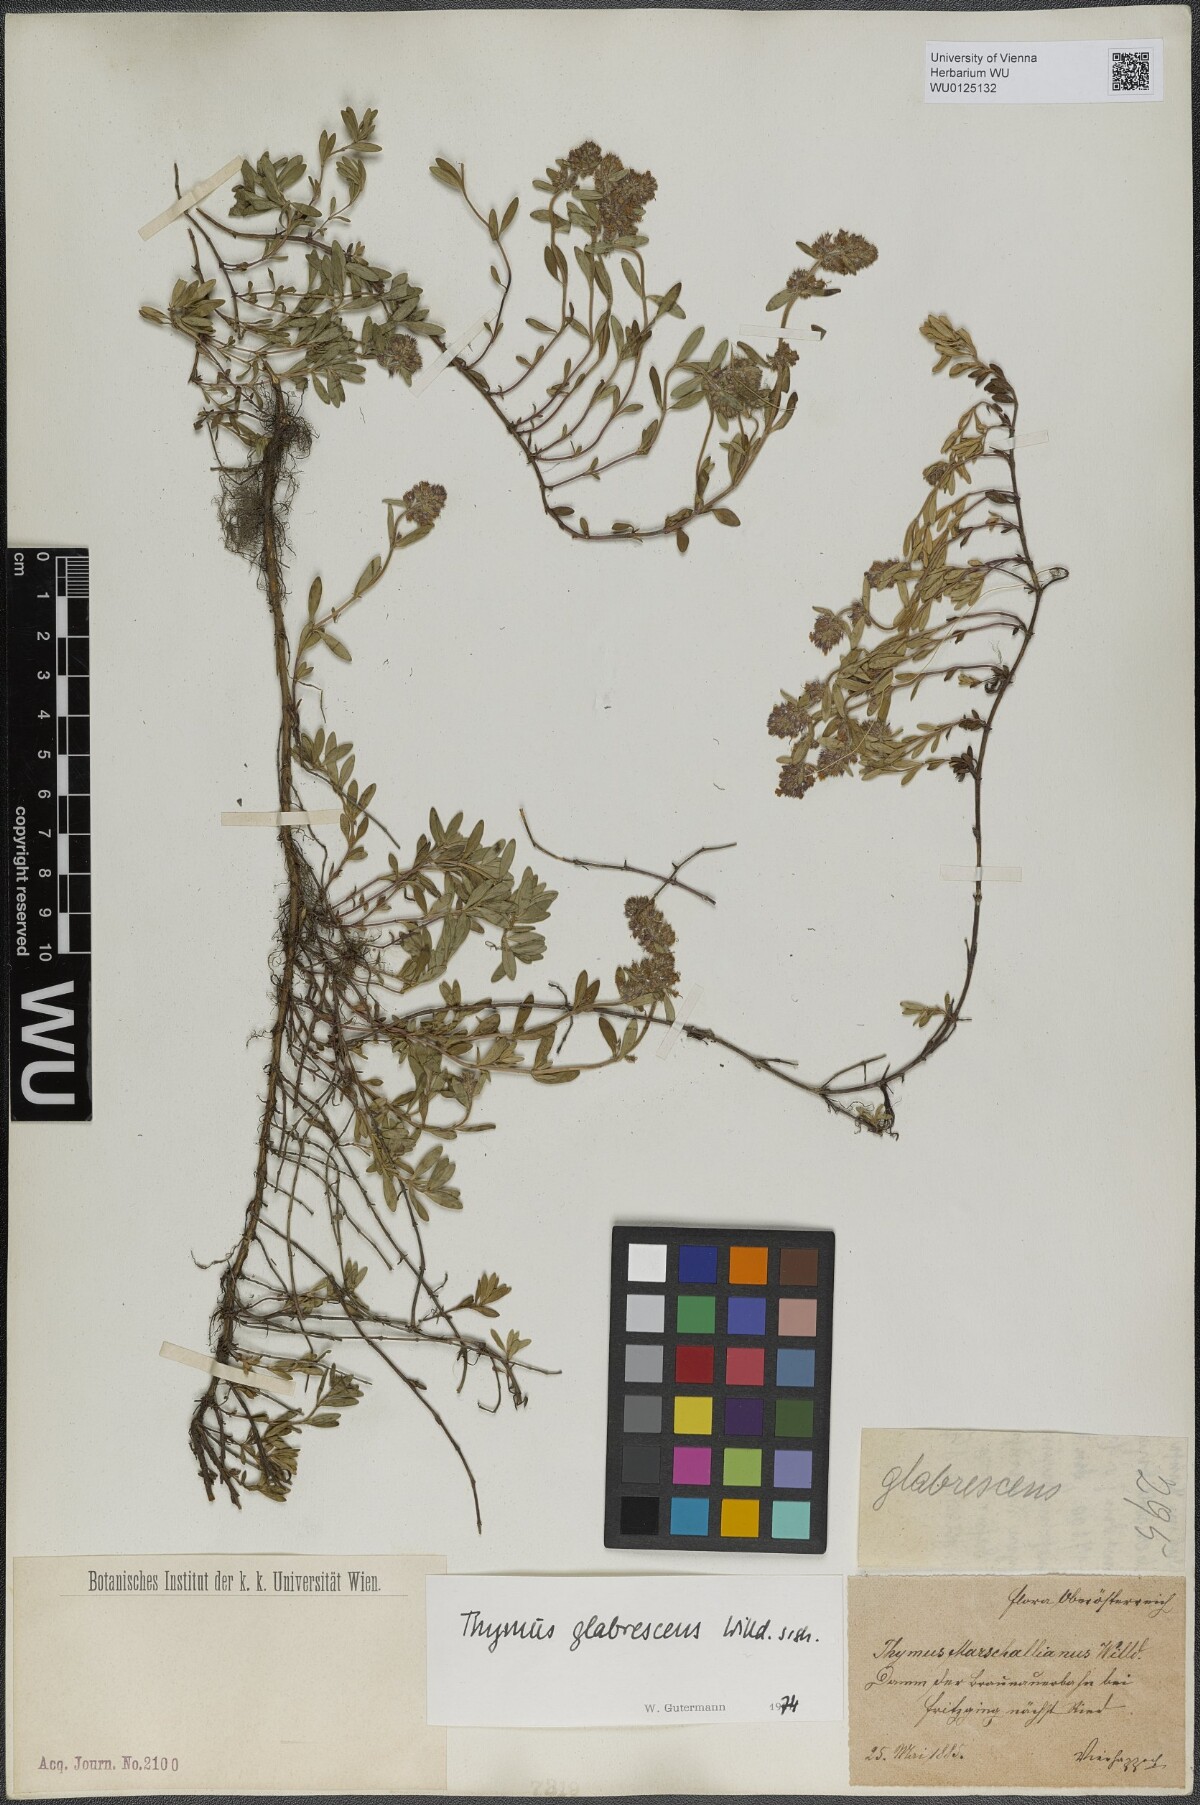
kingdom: Plantae
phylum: Tracheophyta
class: Magnoliopsida
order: Lamiales
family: Lamiaceae
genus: Thymus
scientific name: Thymus odoratissimus
